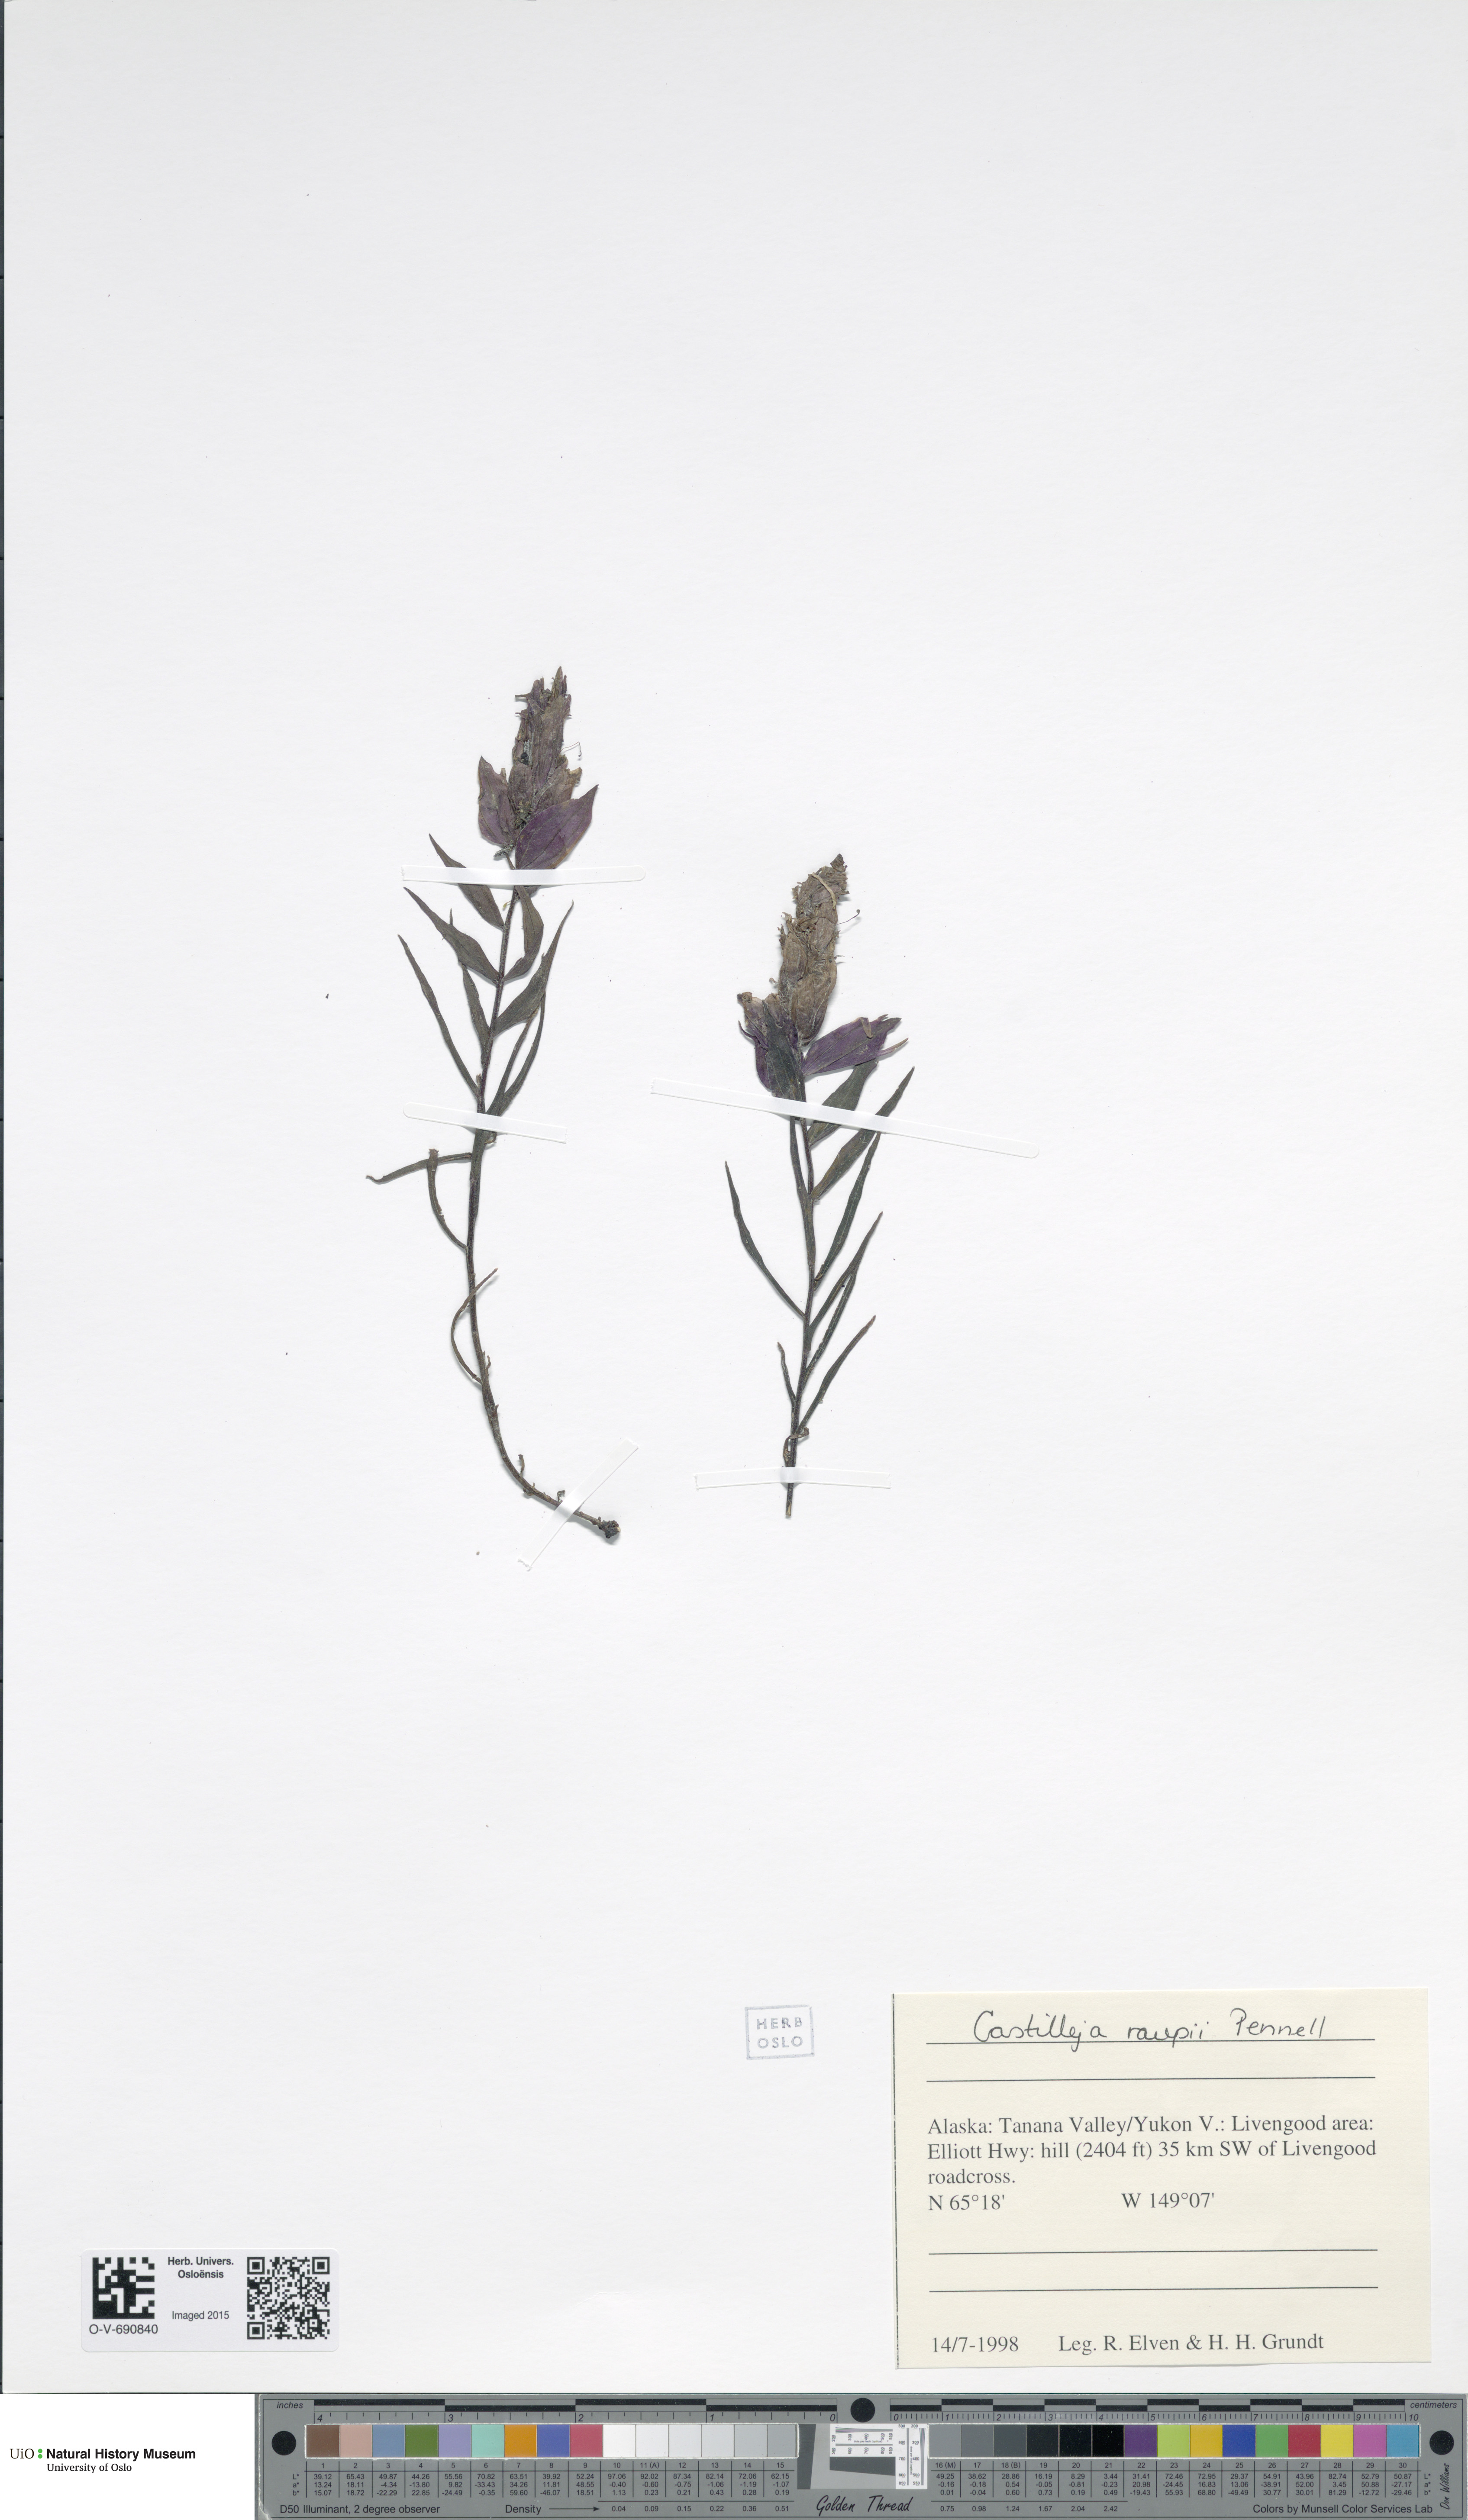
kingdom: Plantae
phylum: Tracheophyta
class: Magnoliopsida
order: Lamiales
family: Orobanchaceae
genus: Castilleja
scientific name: Castilleja raupii
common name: Raup's paintbrush
